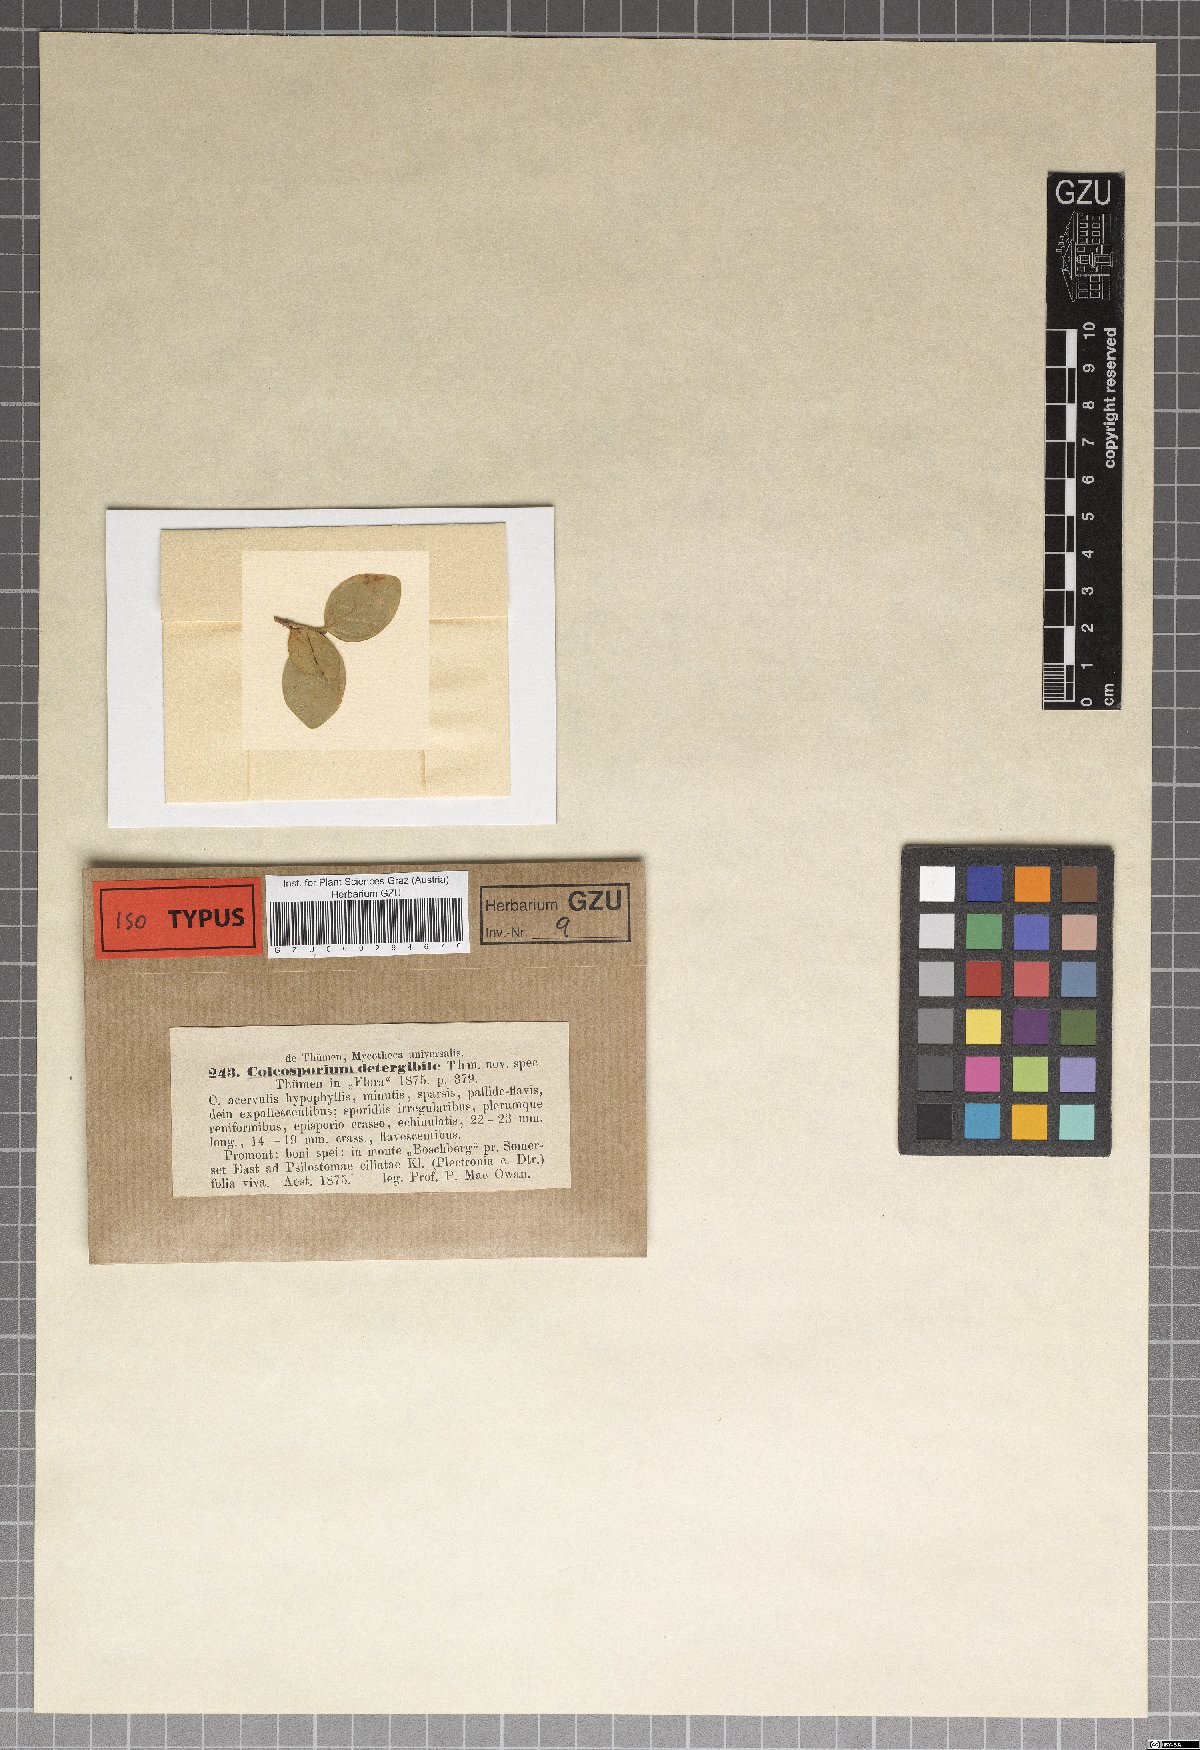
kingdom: Fungi
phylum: Basidiomycota
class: Pucciniomycetes
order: Pucciniales
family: Zaghouaniaceae
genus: Hemileia
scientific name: Hemileia detergibile
